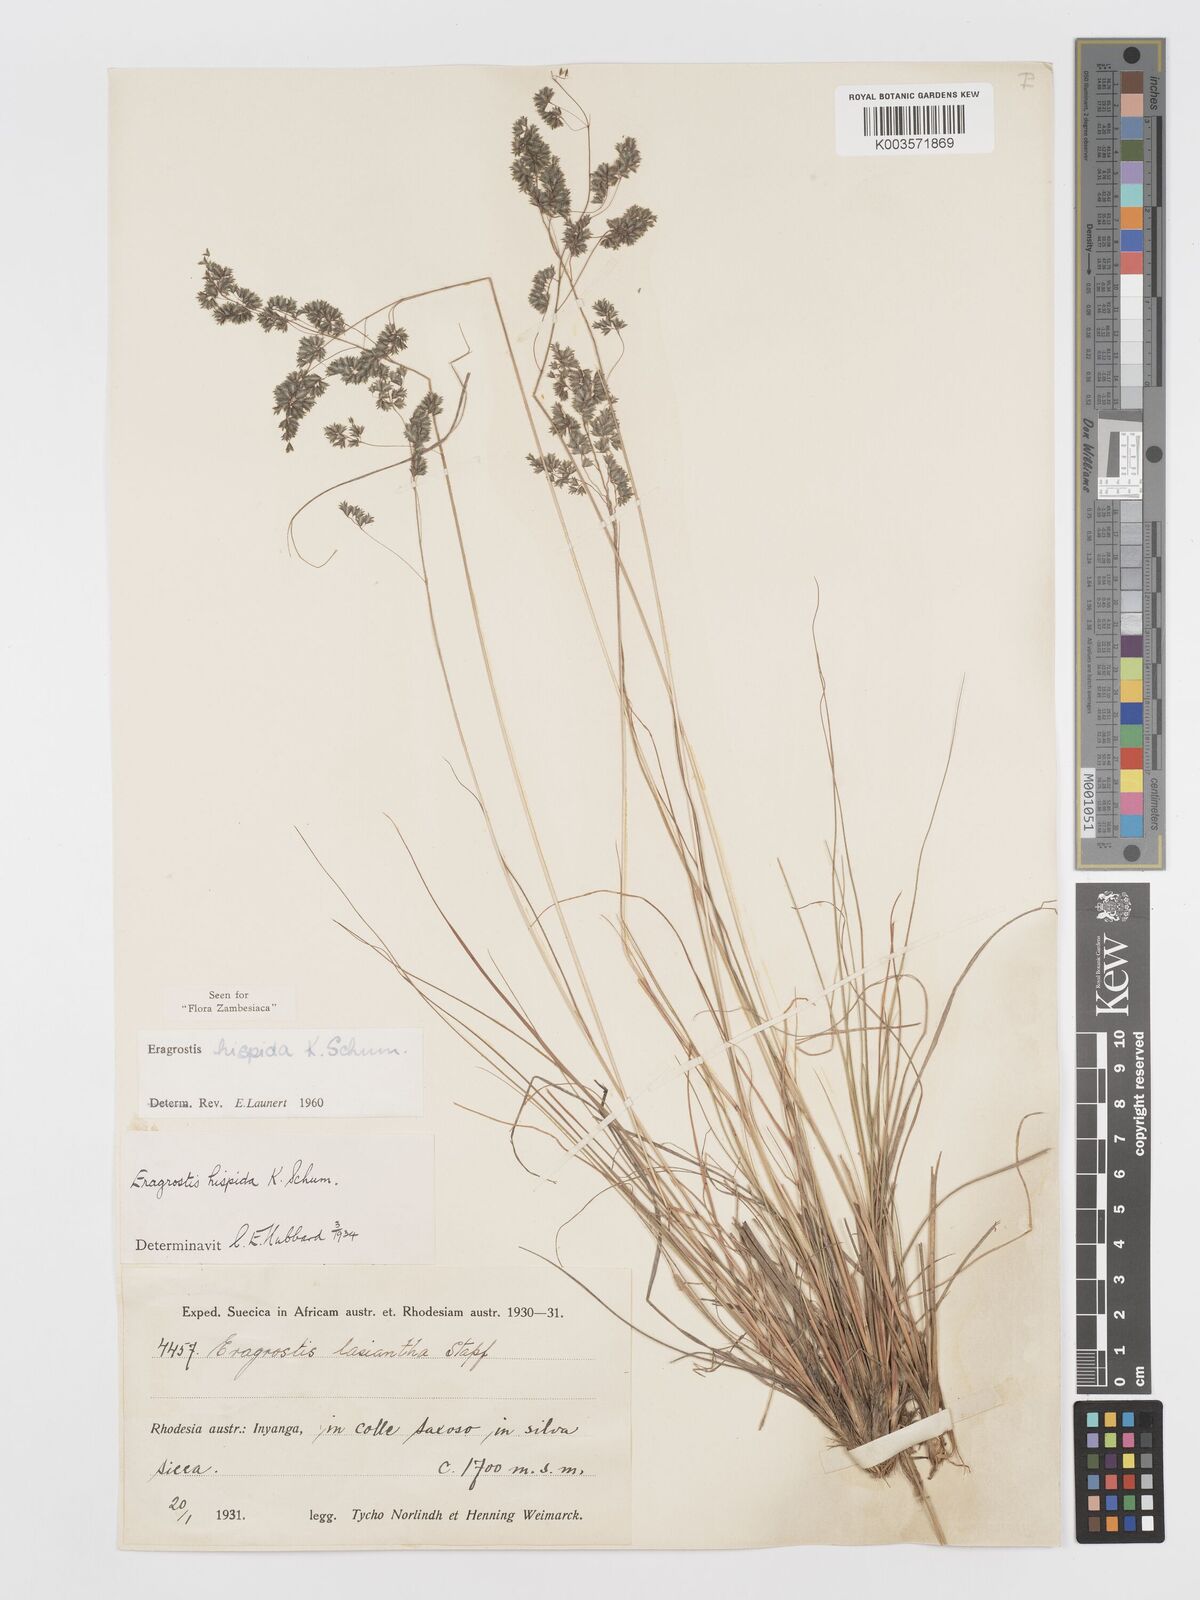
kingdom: Plantae
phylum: Tracheophyta
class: Liliopsida
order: Poales
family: Poaceae
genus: Eragrostis
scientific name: Eragrostis hispida
